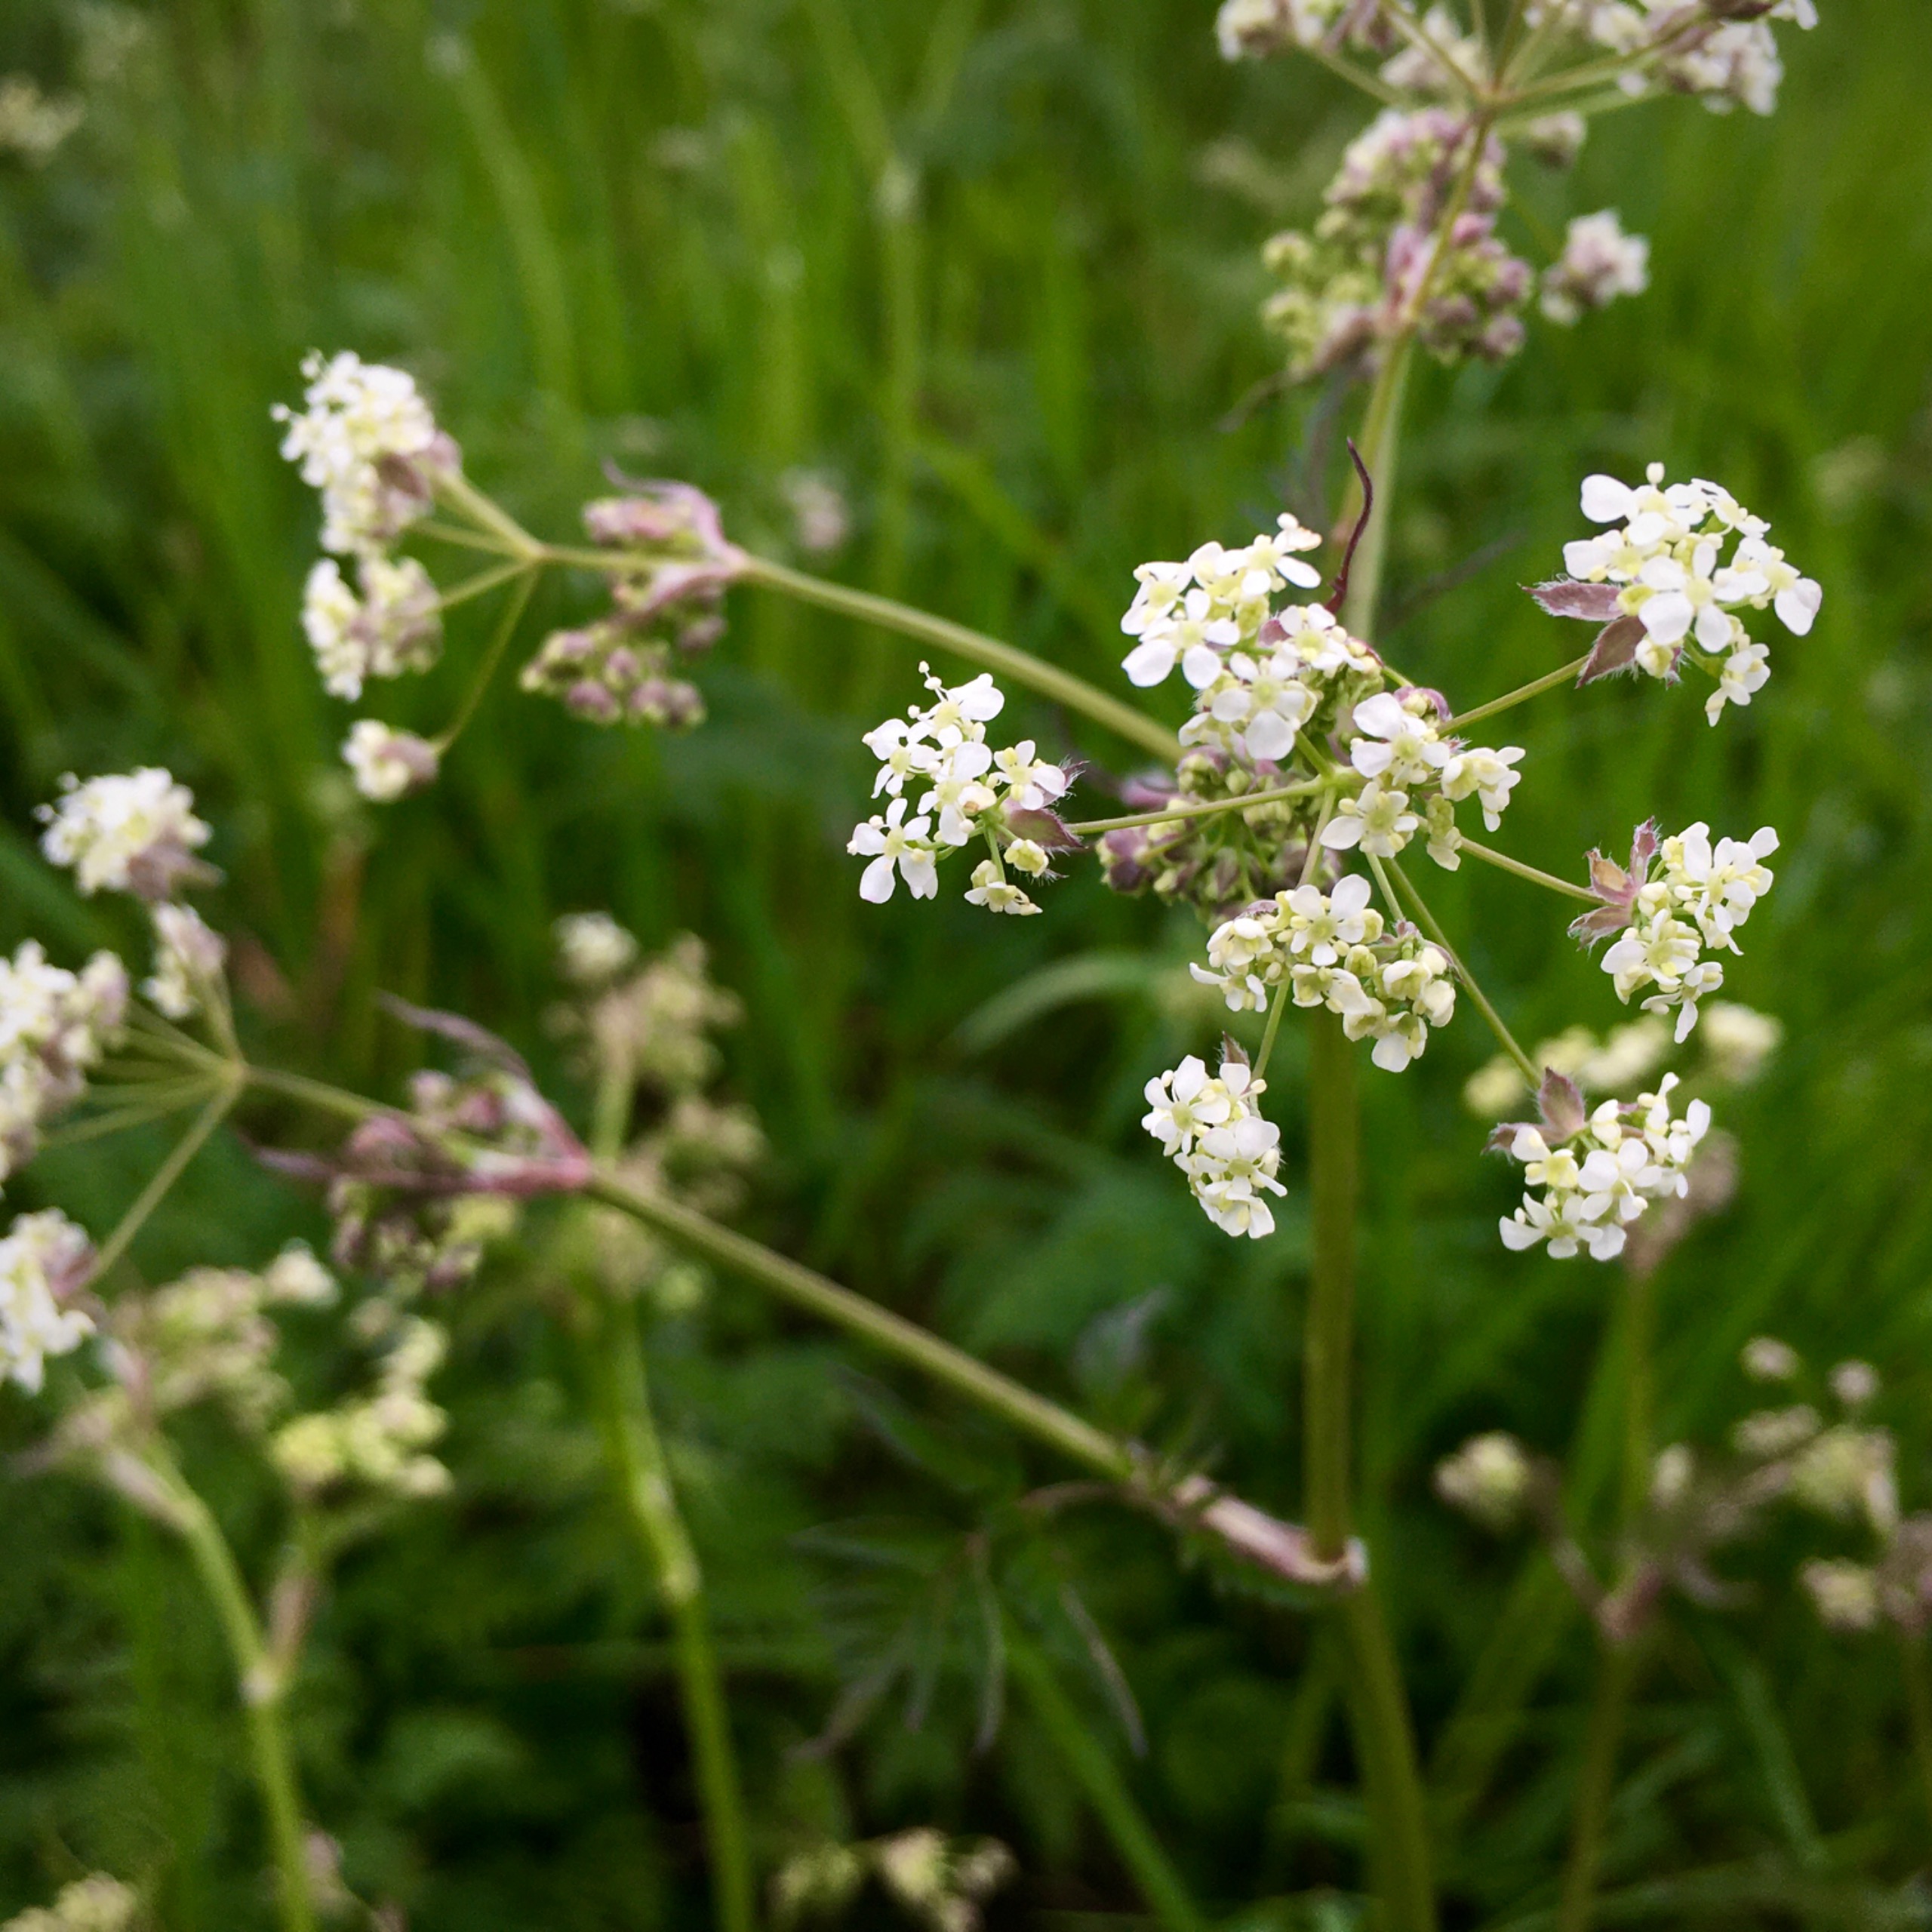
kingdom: Plantae
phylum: Tracheophyta
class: Magnoliopsida
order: Apiales
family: Apiaceae
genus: Anthriscus
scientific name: Anthriscus sylvestris
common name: Vild kørvel
